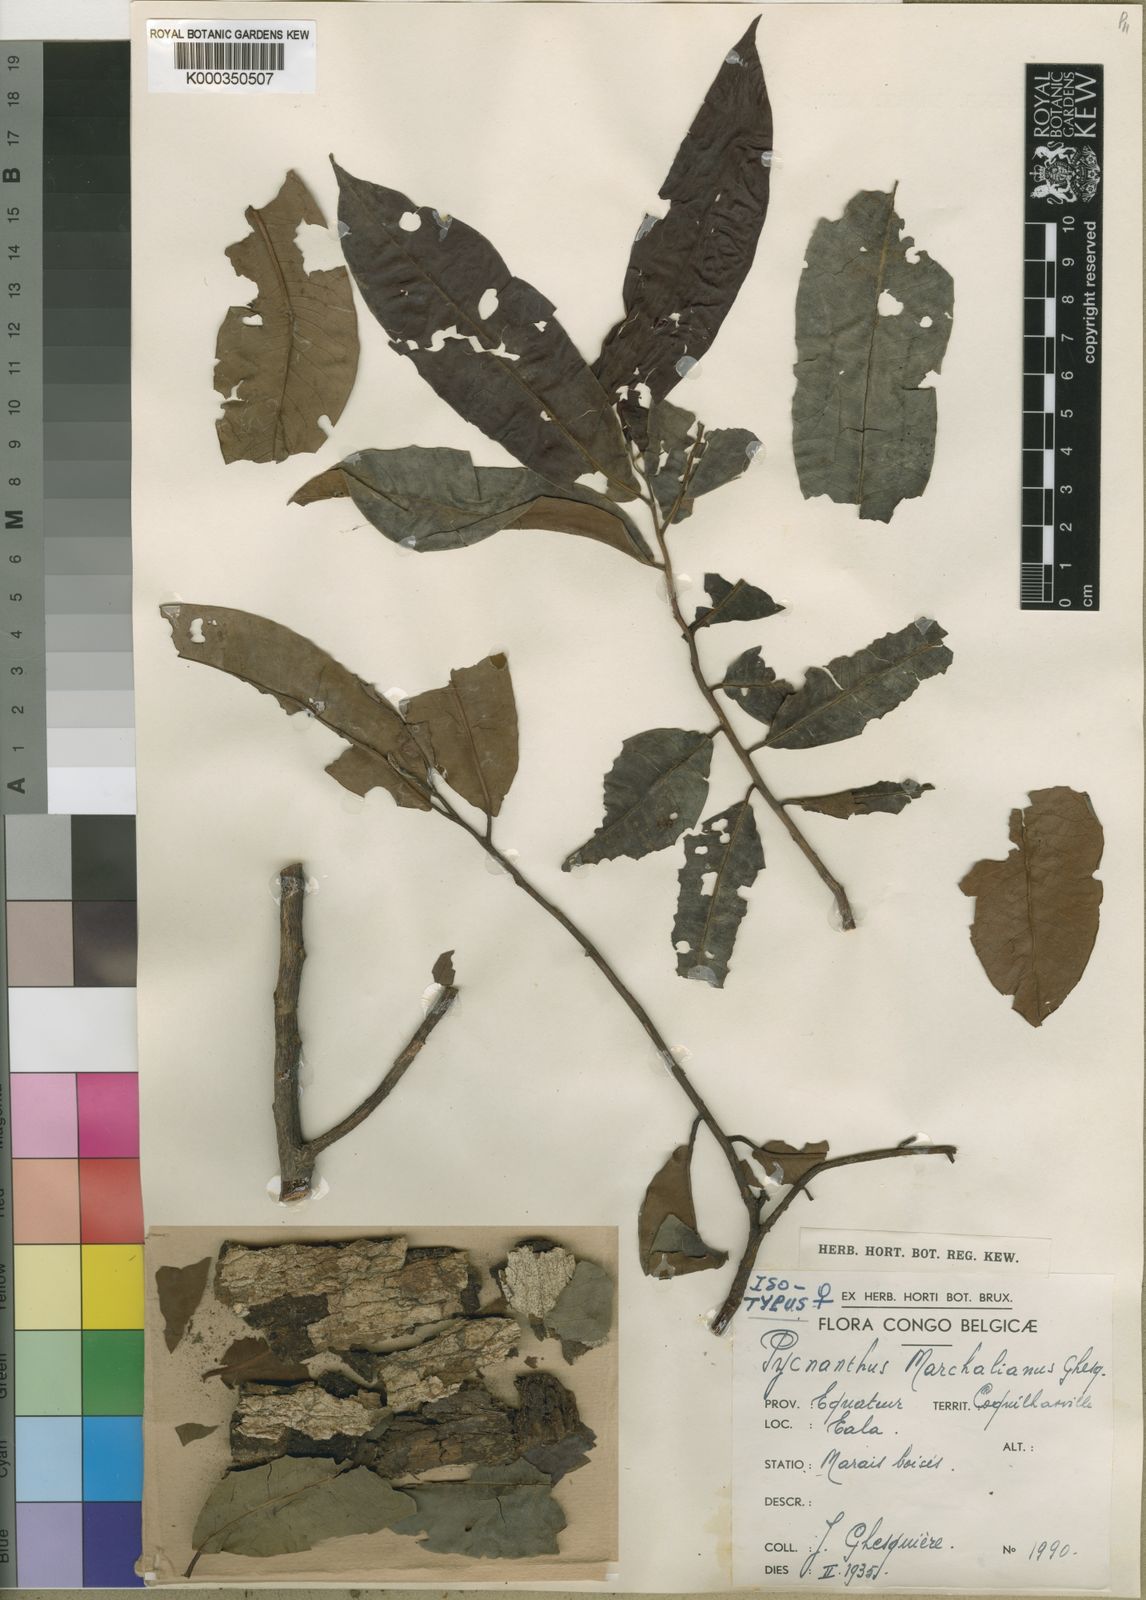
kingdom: Plantae
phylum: Tracheophyta
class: Magnoliopsida
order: Magnoliales
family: Myristicaceae
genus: Pycnanthus
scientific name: Pycnanthus marchalianus
